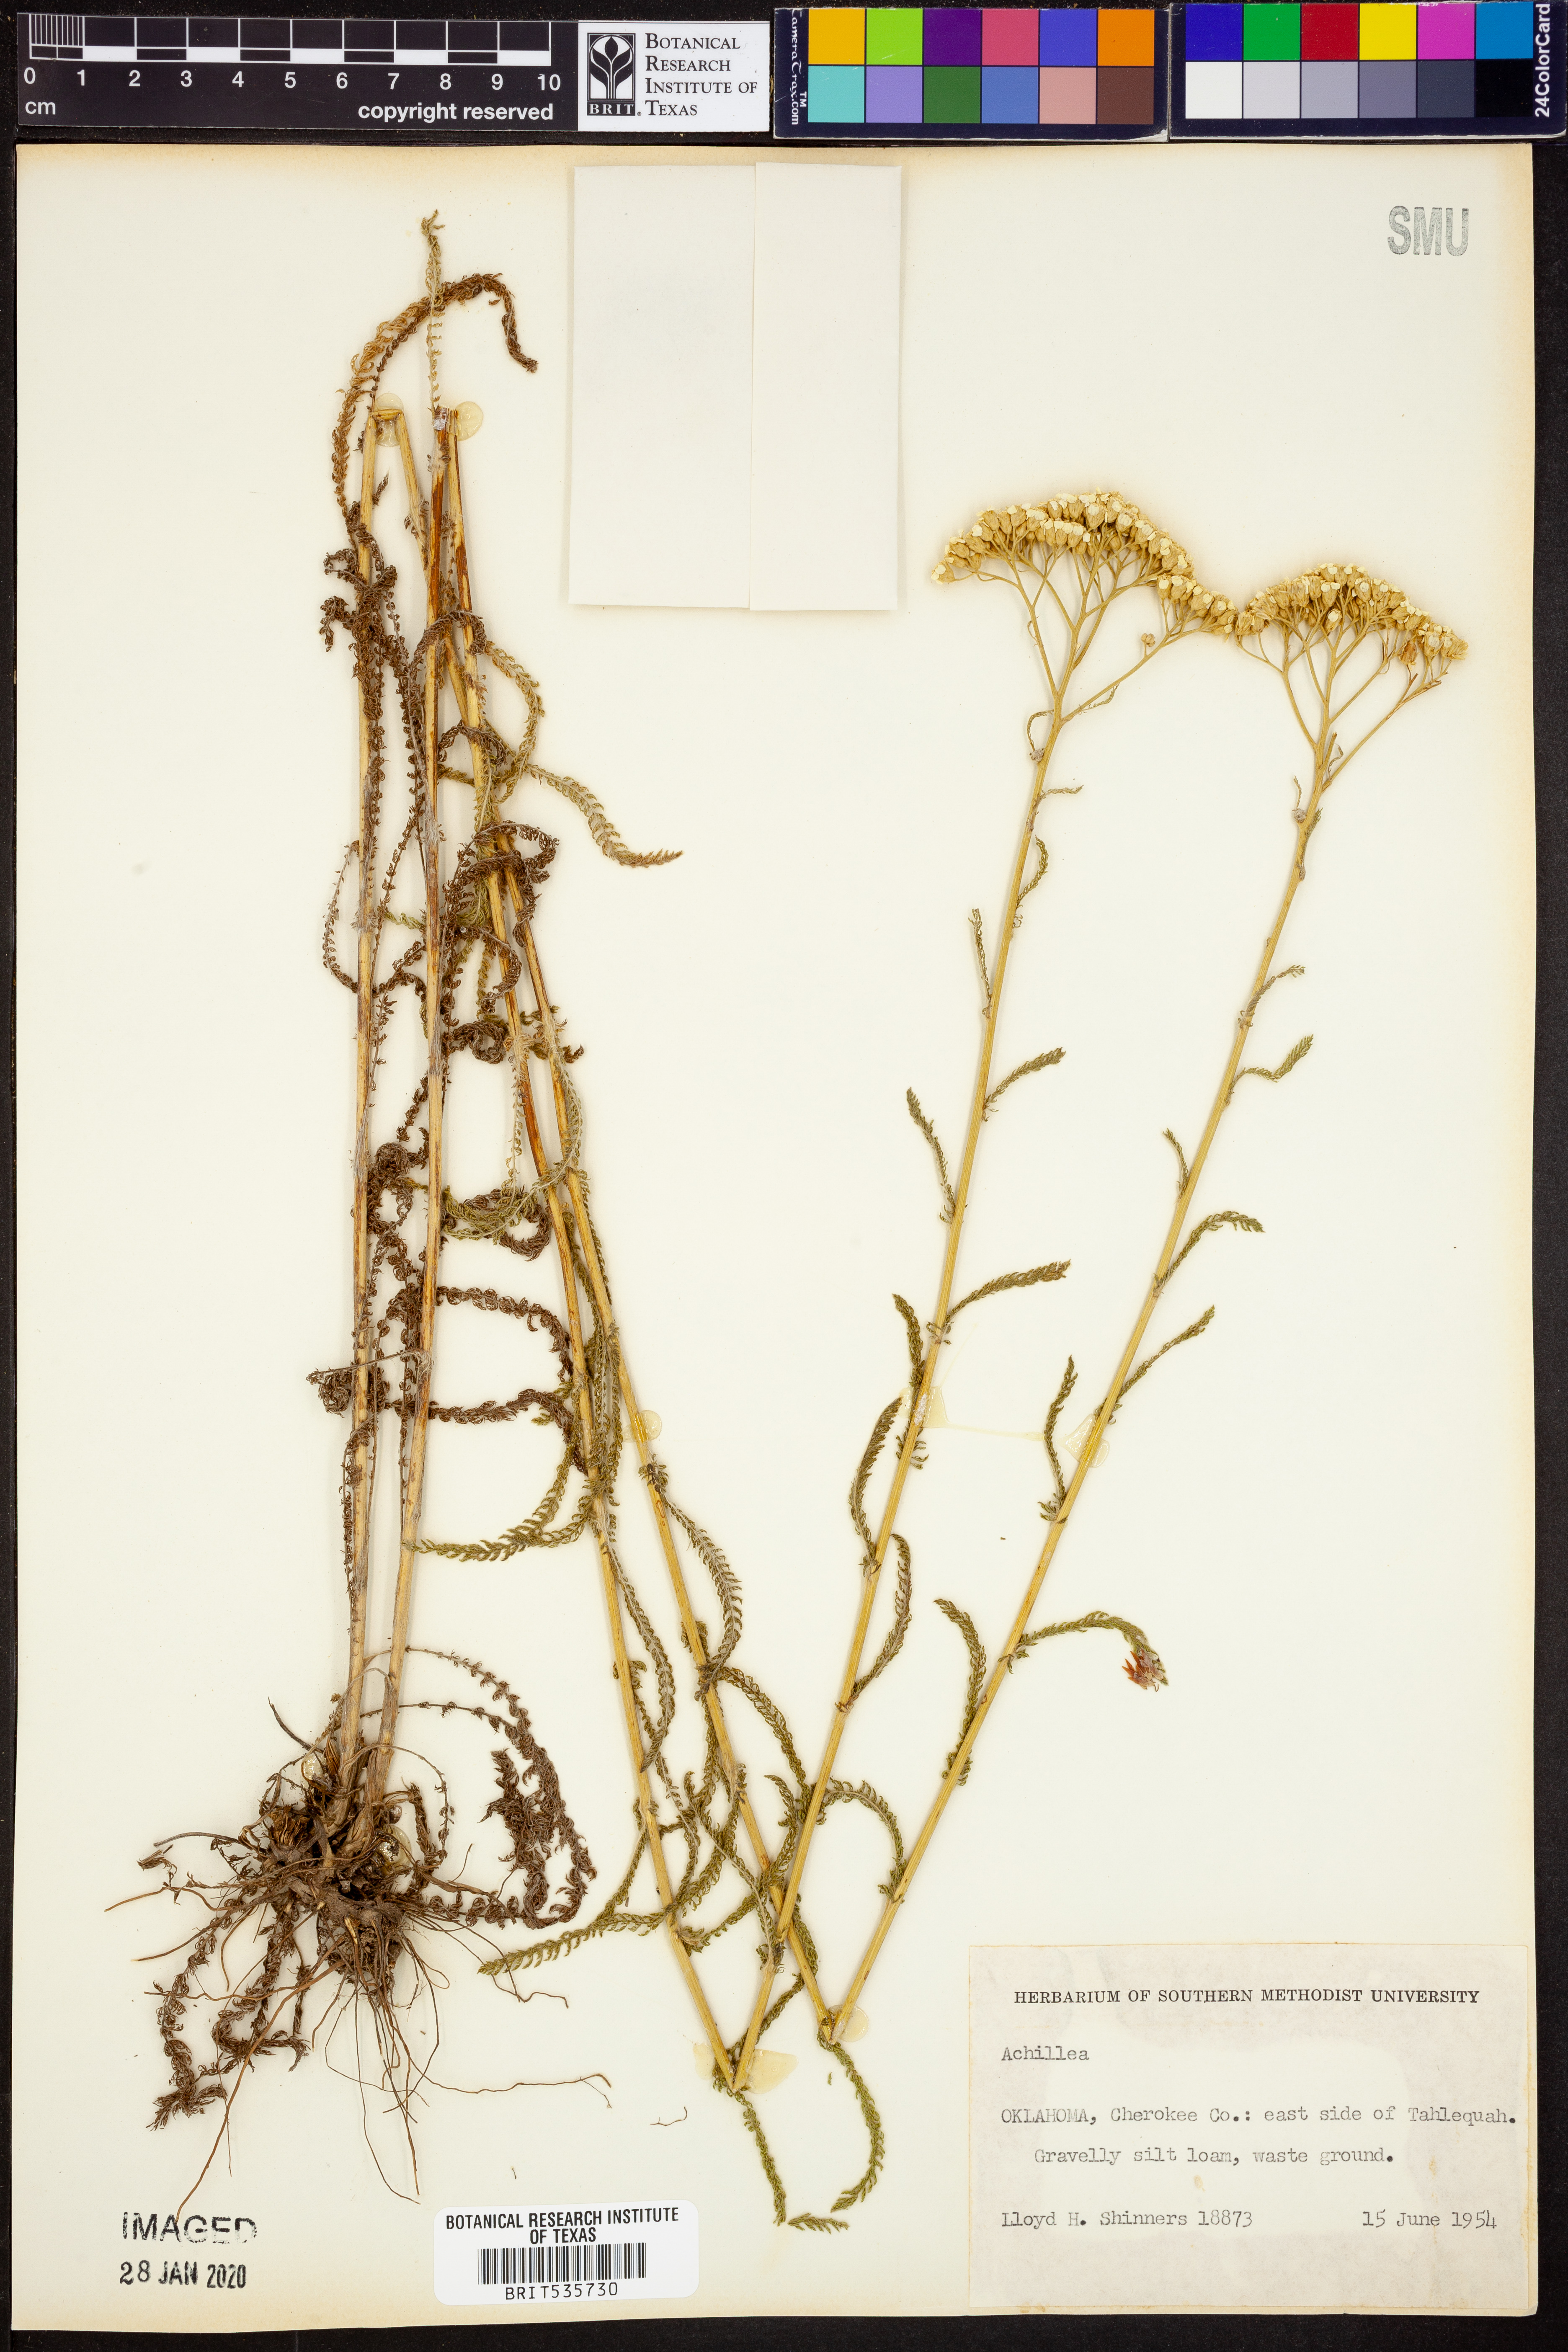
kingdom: Plantae
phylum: Tracheophyta
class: Magnoliopsida
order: Asterales
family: Asteraceae
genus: Achillea
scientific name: Achillea
